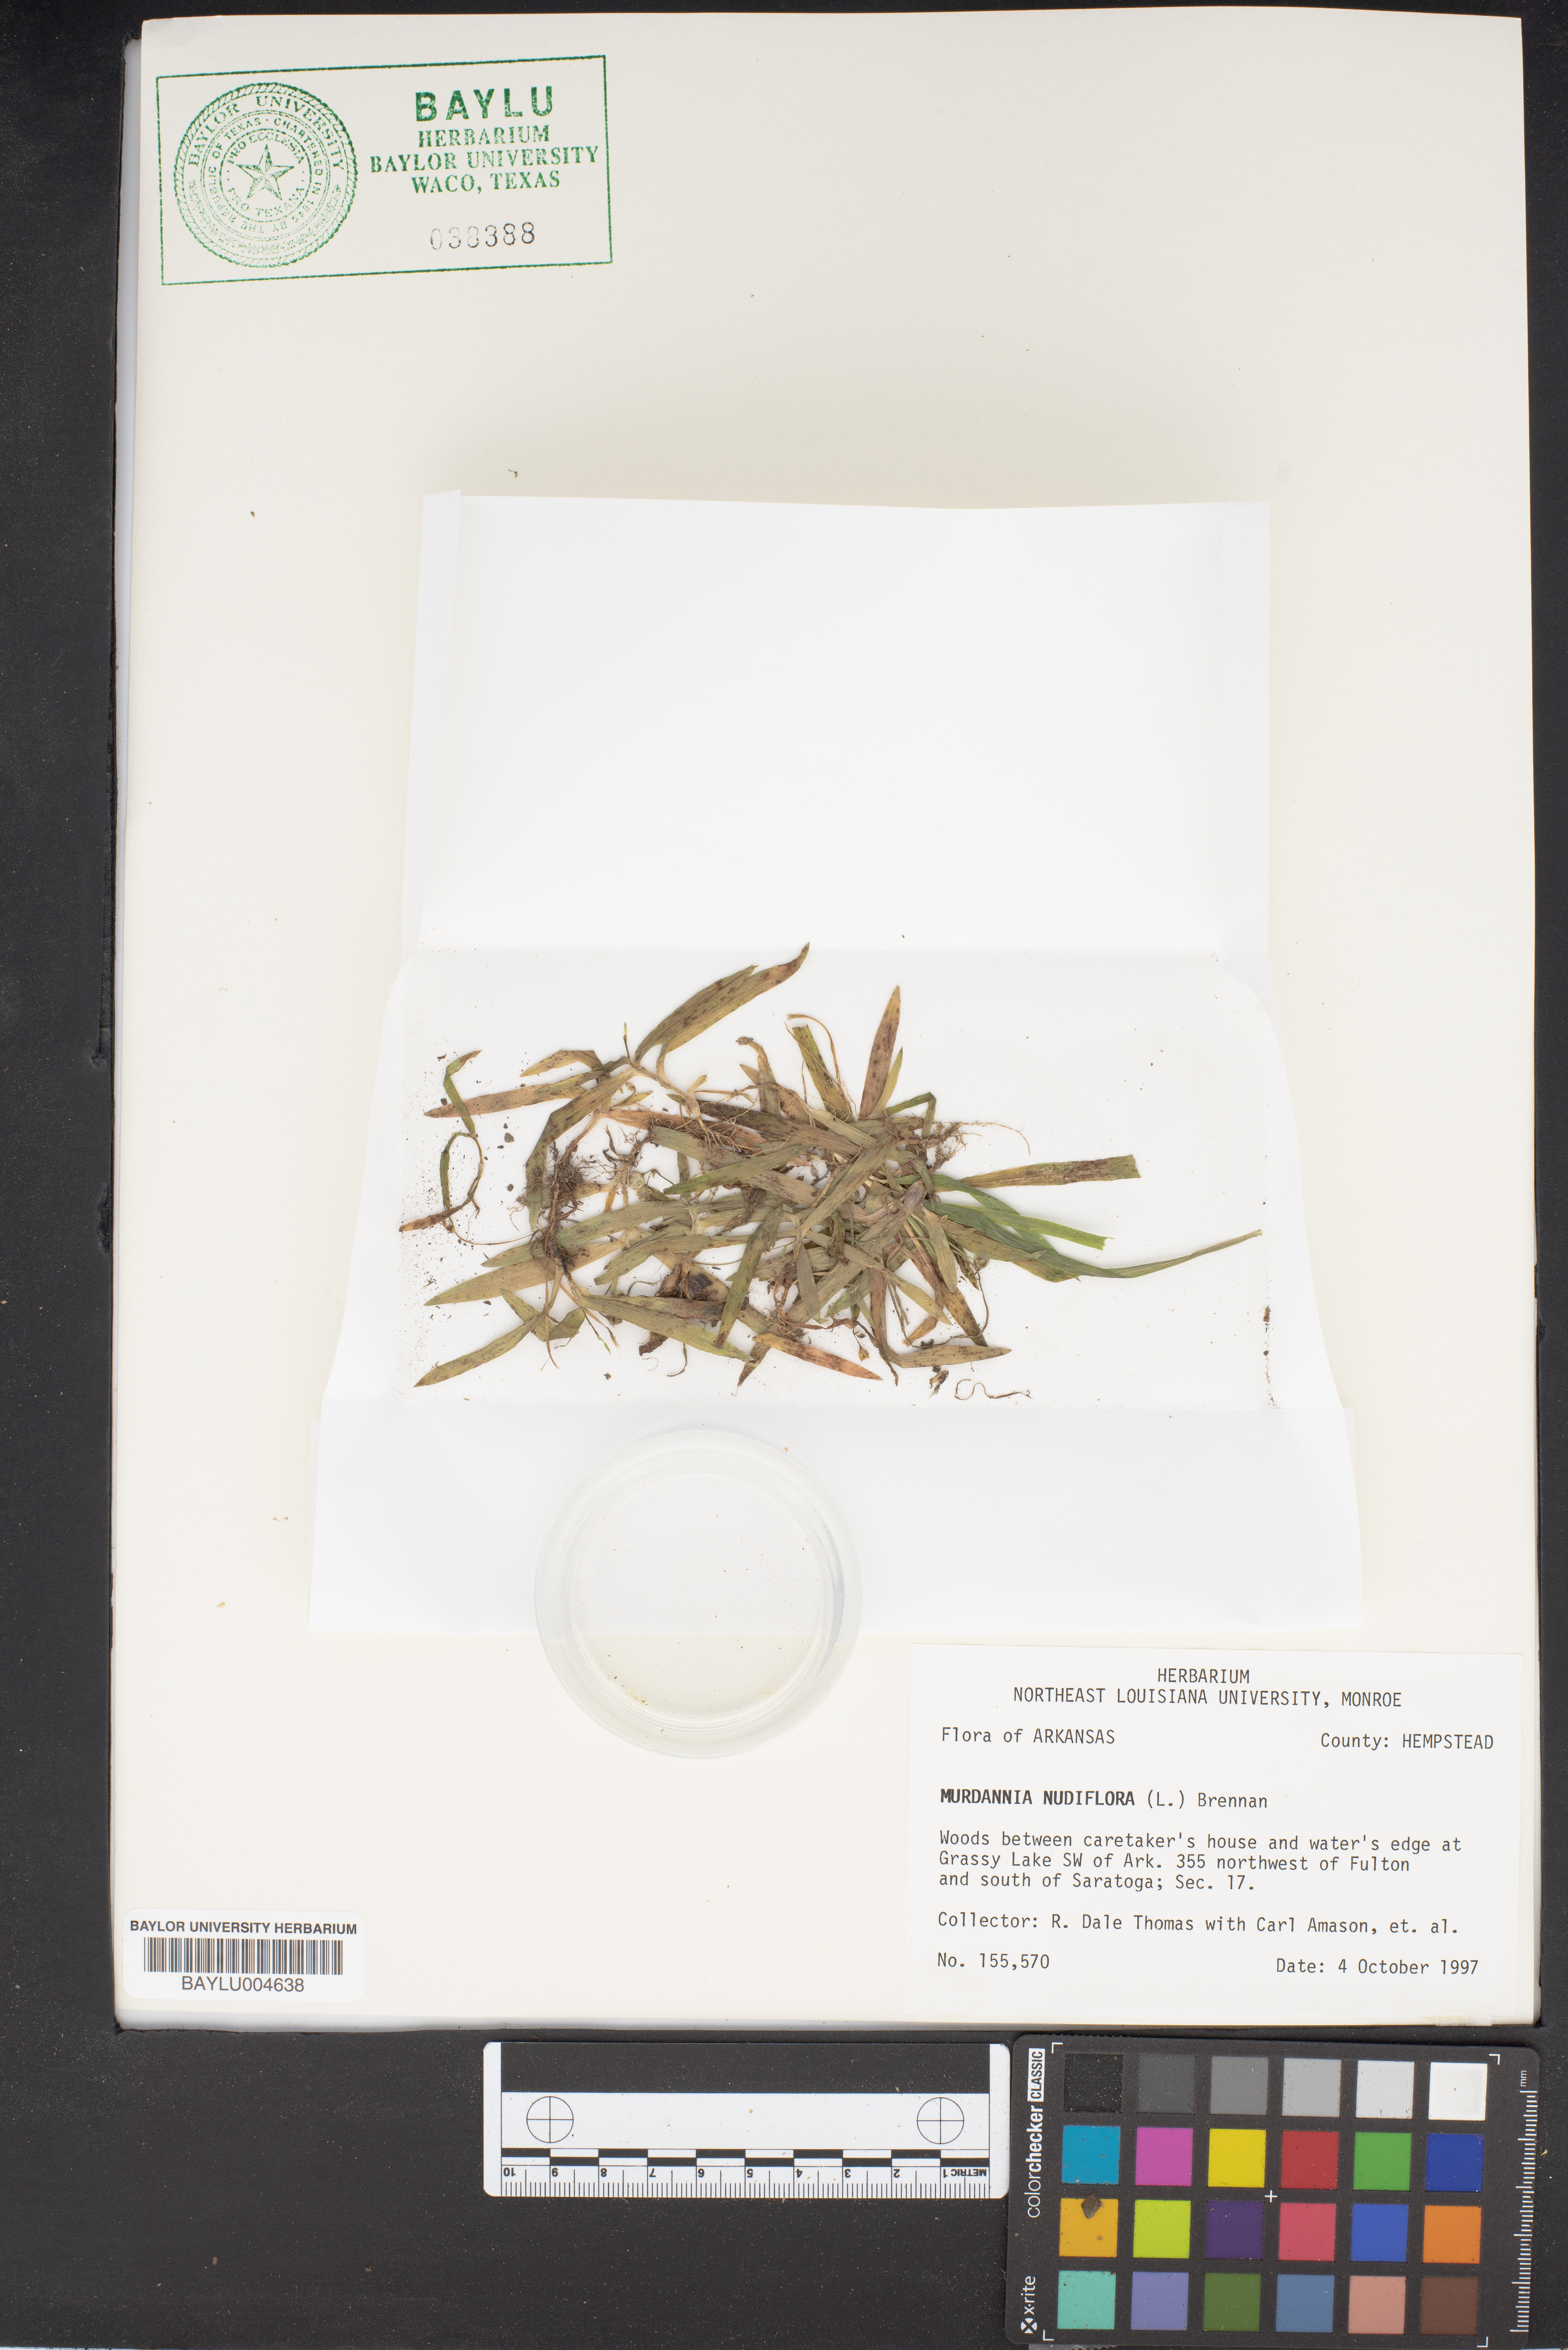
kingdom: Plantae
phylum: Tracheophyta
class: Liliopsida
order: Commelinales
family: Commelinaceae
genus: Murdannia
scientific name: Murdannia nudiflora
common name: Nakedstem dewflower
